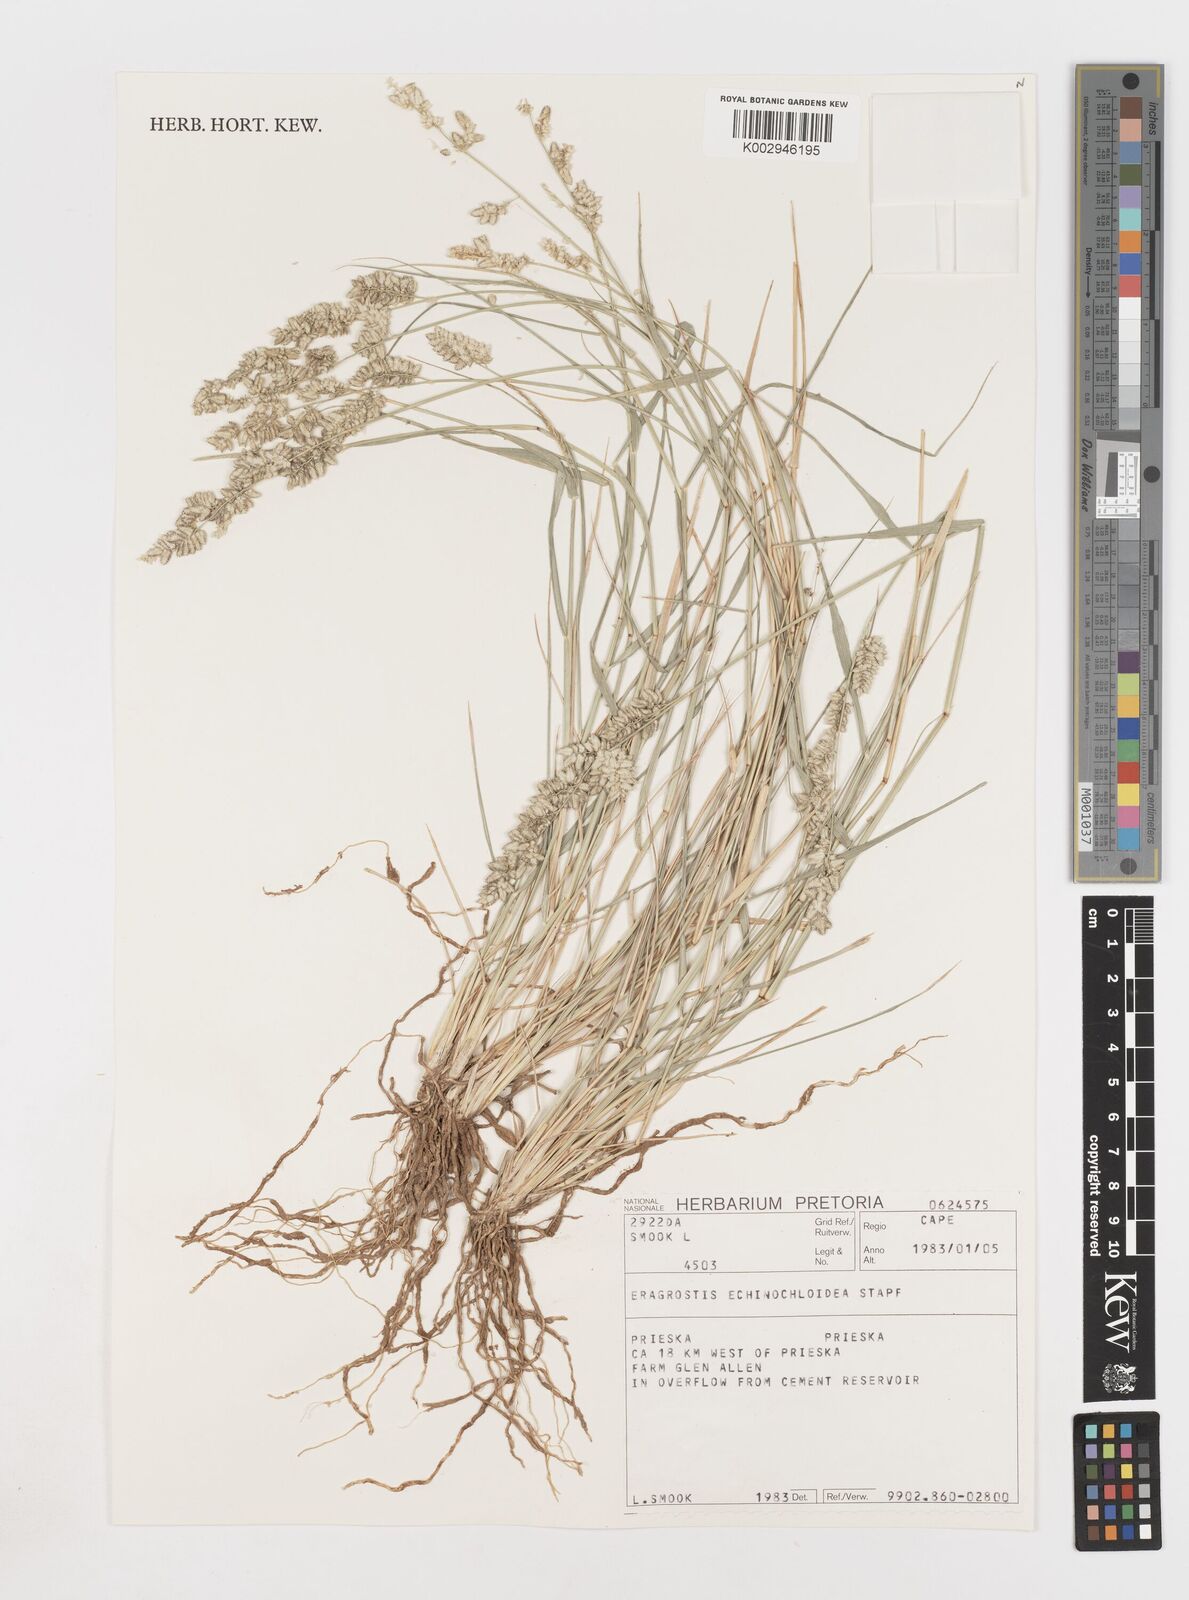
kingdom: Plantae
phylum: Tracheophyta
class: Liliopsida
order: Poales
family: Poaceae
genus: Eragrostis
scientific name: Eragrostis echinochloidea
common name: African lovegrass
